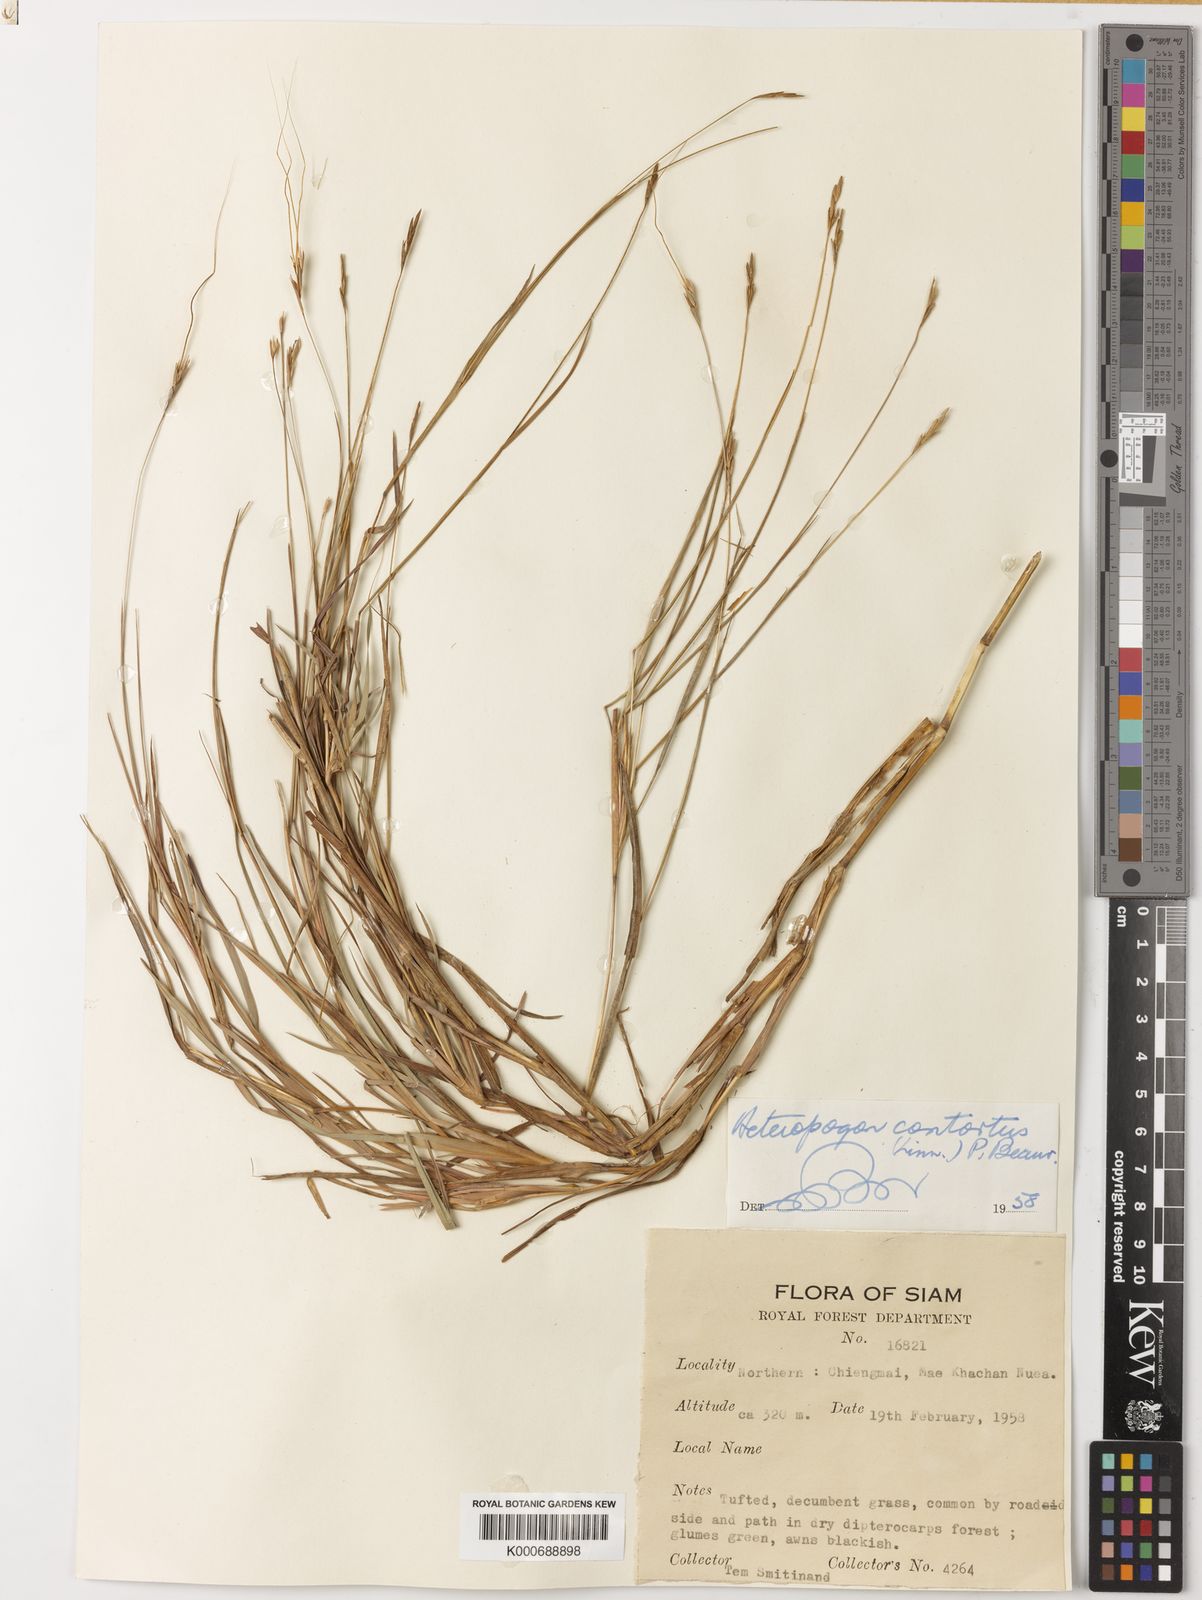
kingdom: Plantae
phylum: Tracheophyta
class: Liliopsida
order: Poales
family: Poaceae
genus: Heteropogon
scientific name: Heteropogon contortus
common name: Tanglehead
